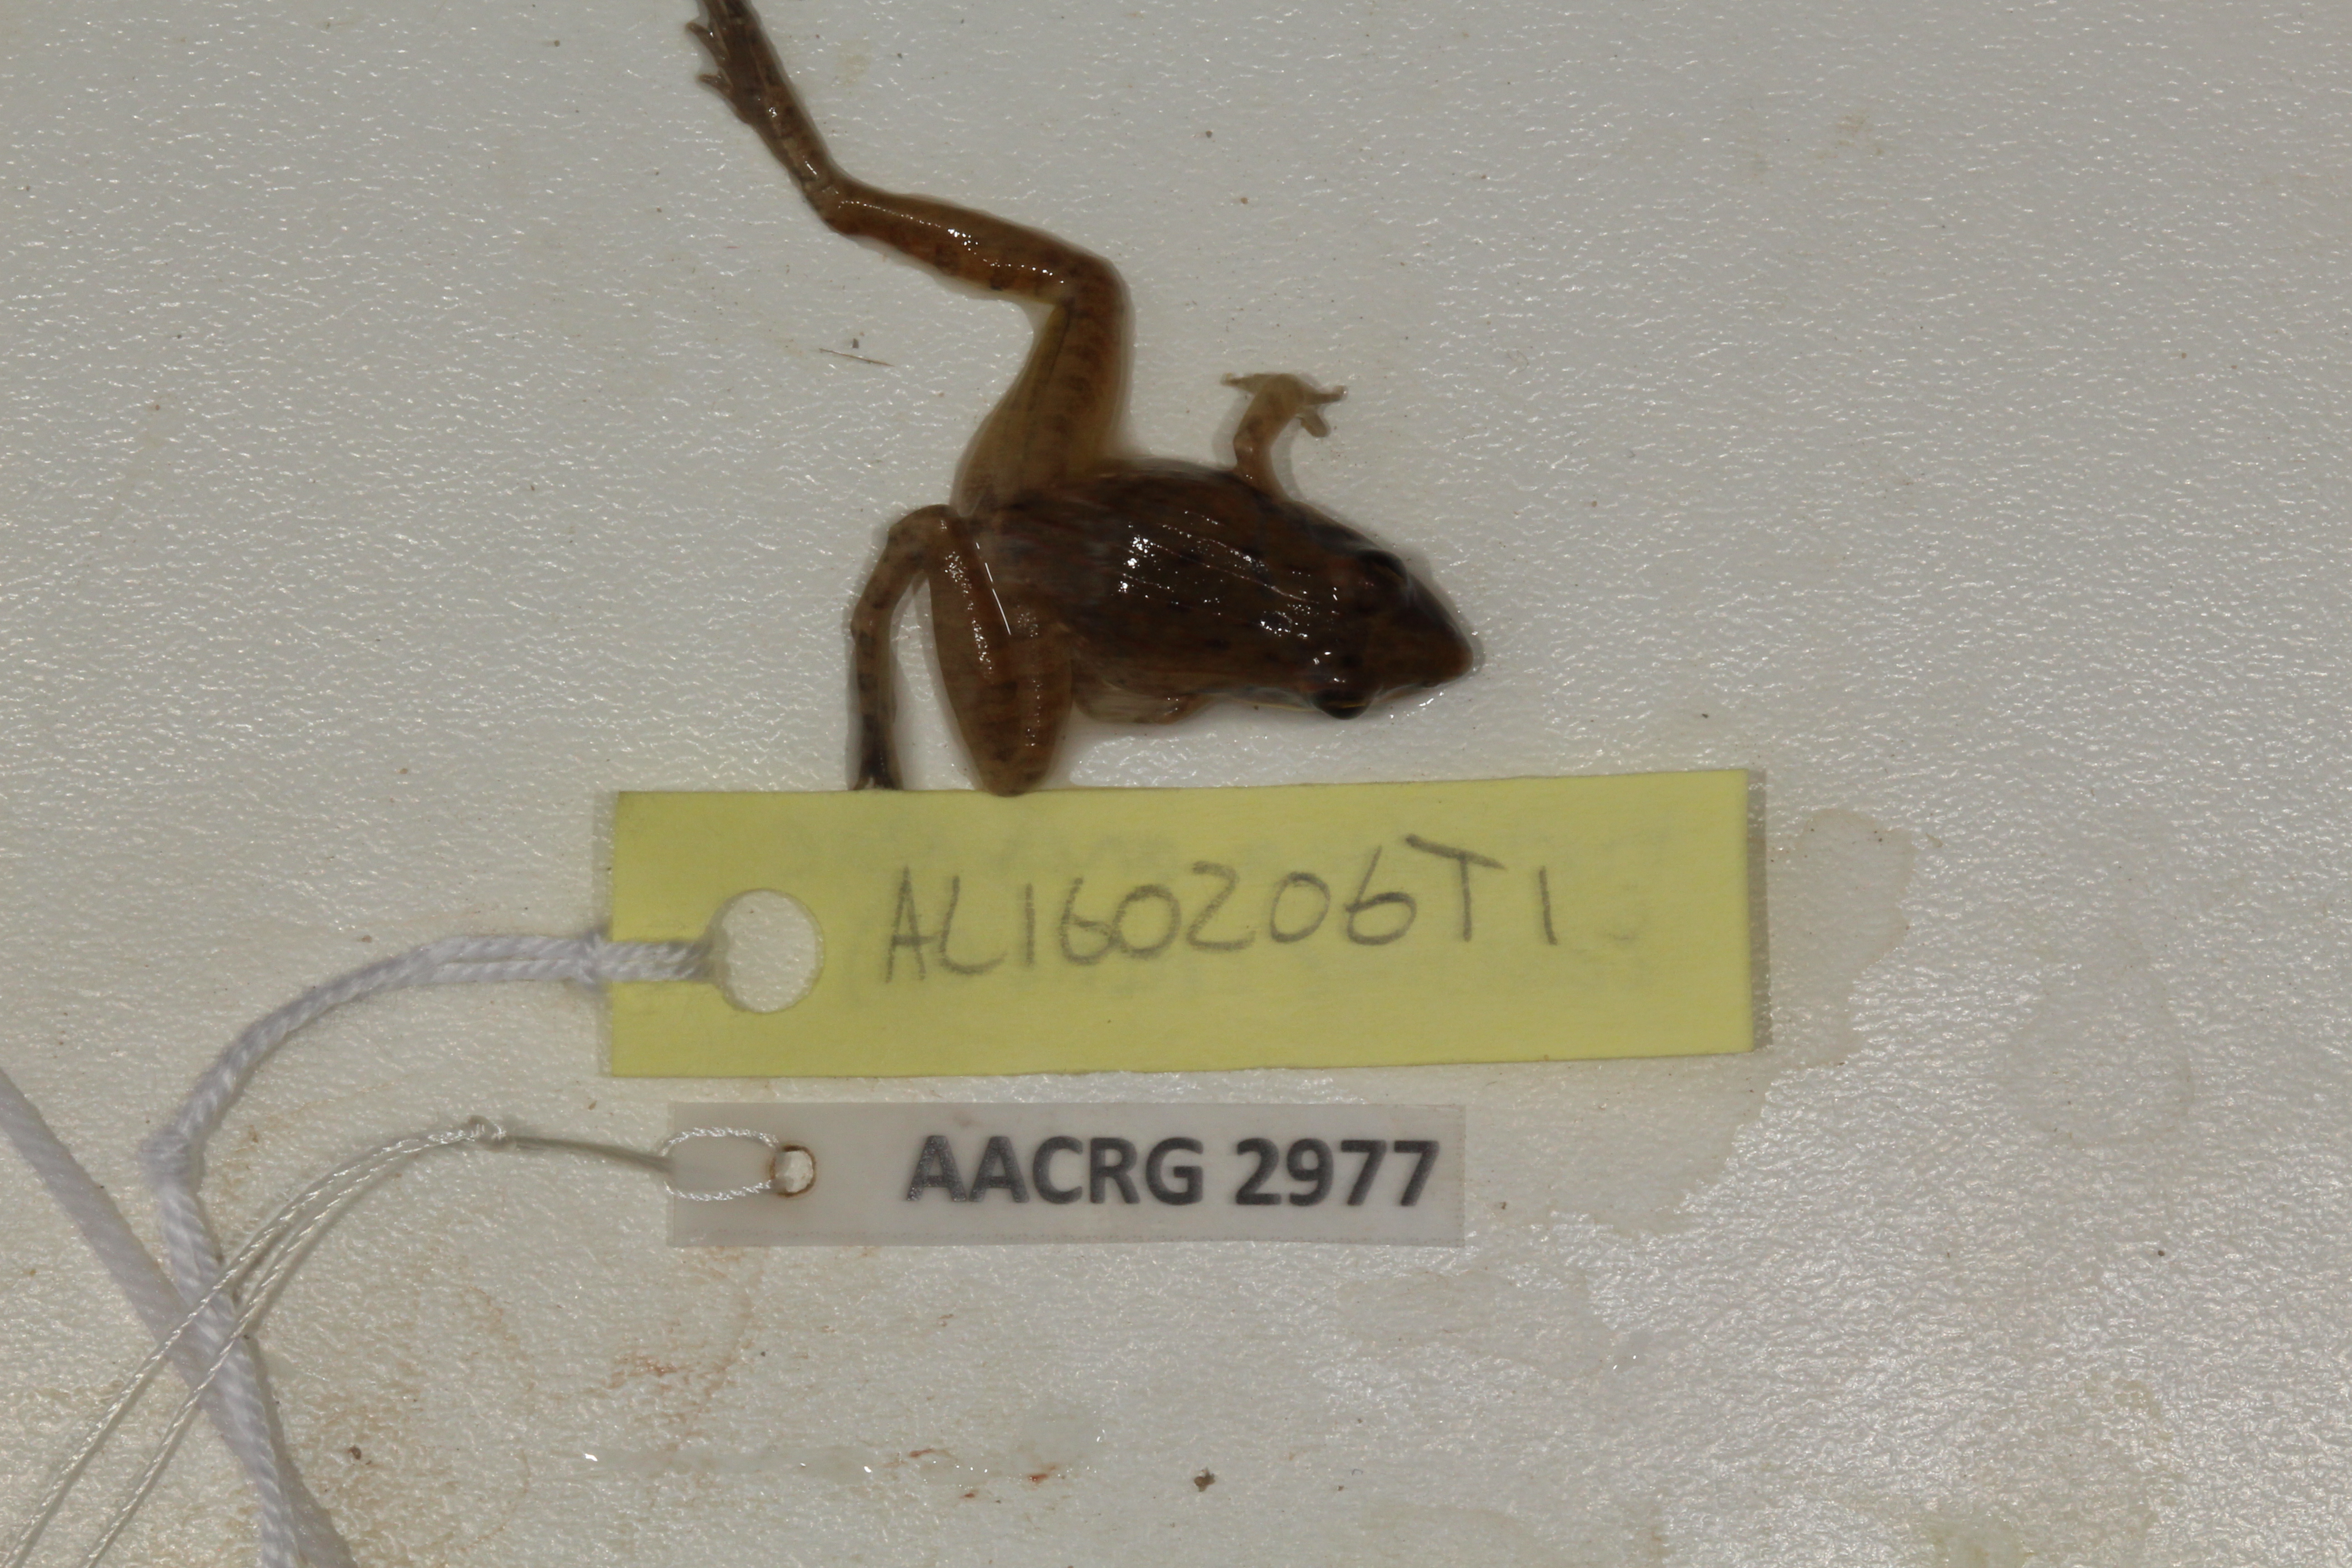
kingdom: Animalia
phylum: Chordata
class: Amphibia
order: Anura
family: Ptychadenidae
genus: Ptychadena
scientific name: Ptychadena anchietae
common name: Anchieta's ridged frog
